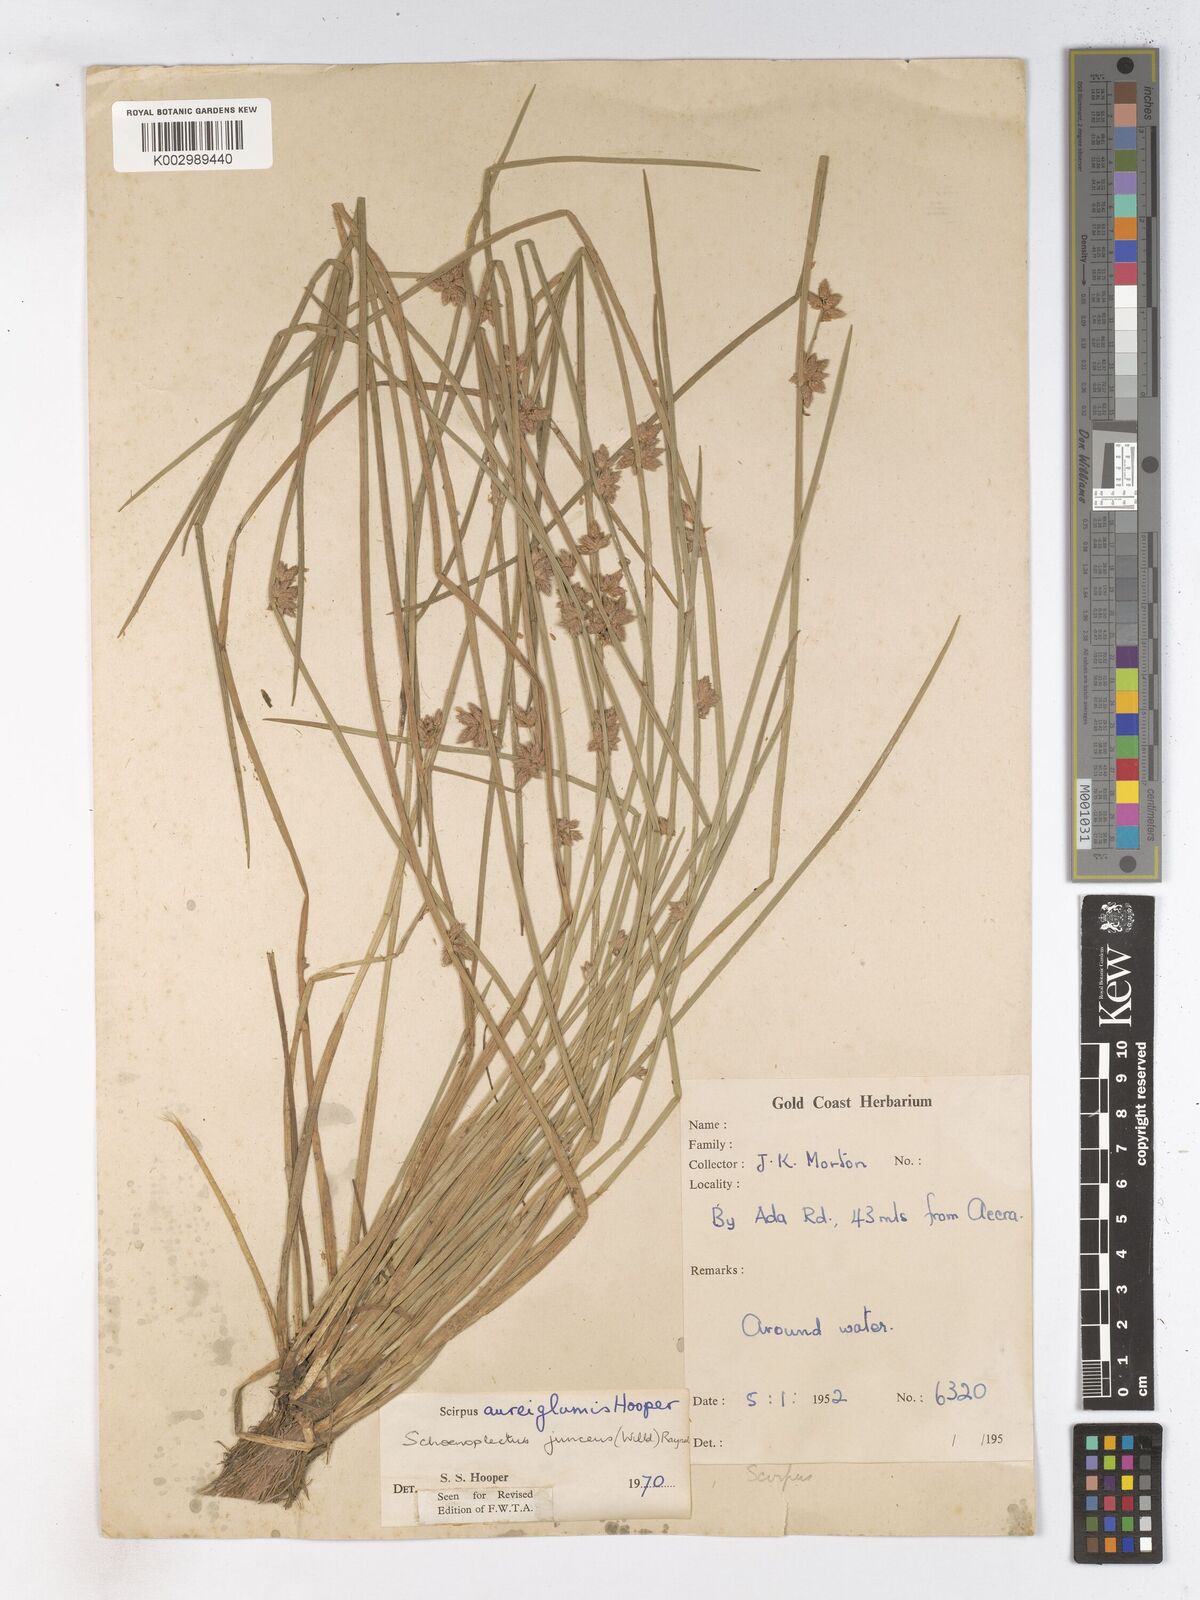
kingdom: Plantae
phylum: Tracheophyta
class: Liliopsida
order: Poales
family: Cyperaceae
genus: Schoenoplectiella
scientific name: Schoenoplectiella juncea
